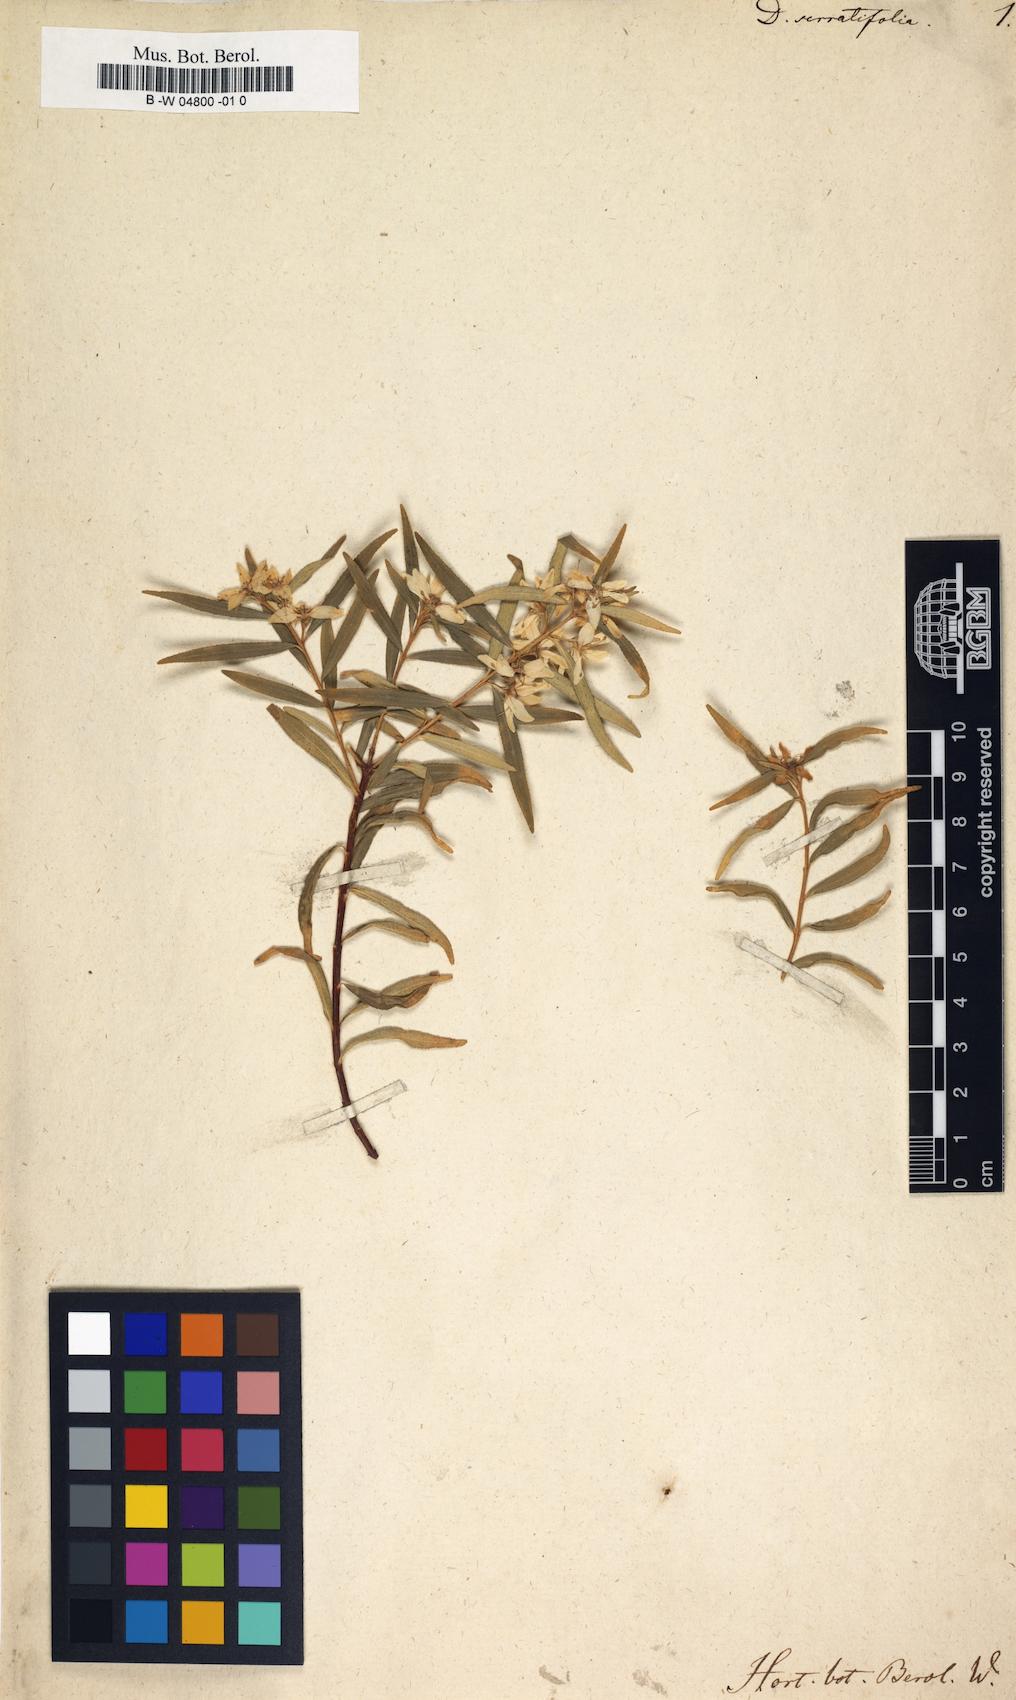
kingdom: Plantae
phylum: Tracheophyta
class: Magnoliopsida
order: Sapindales
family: Rutaceae
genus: Agathosma
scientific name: Agathosma serratifolia
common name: Longleaf buchu
